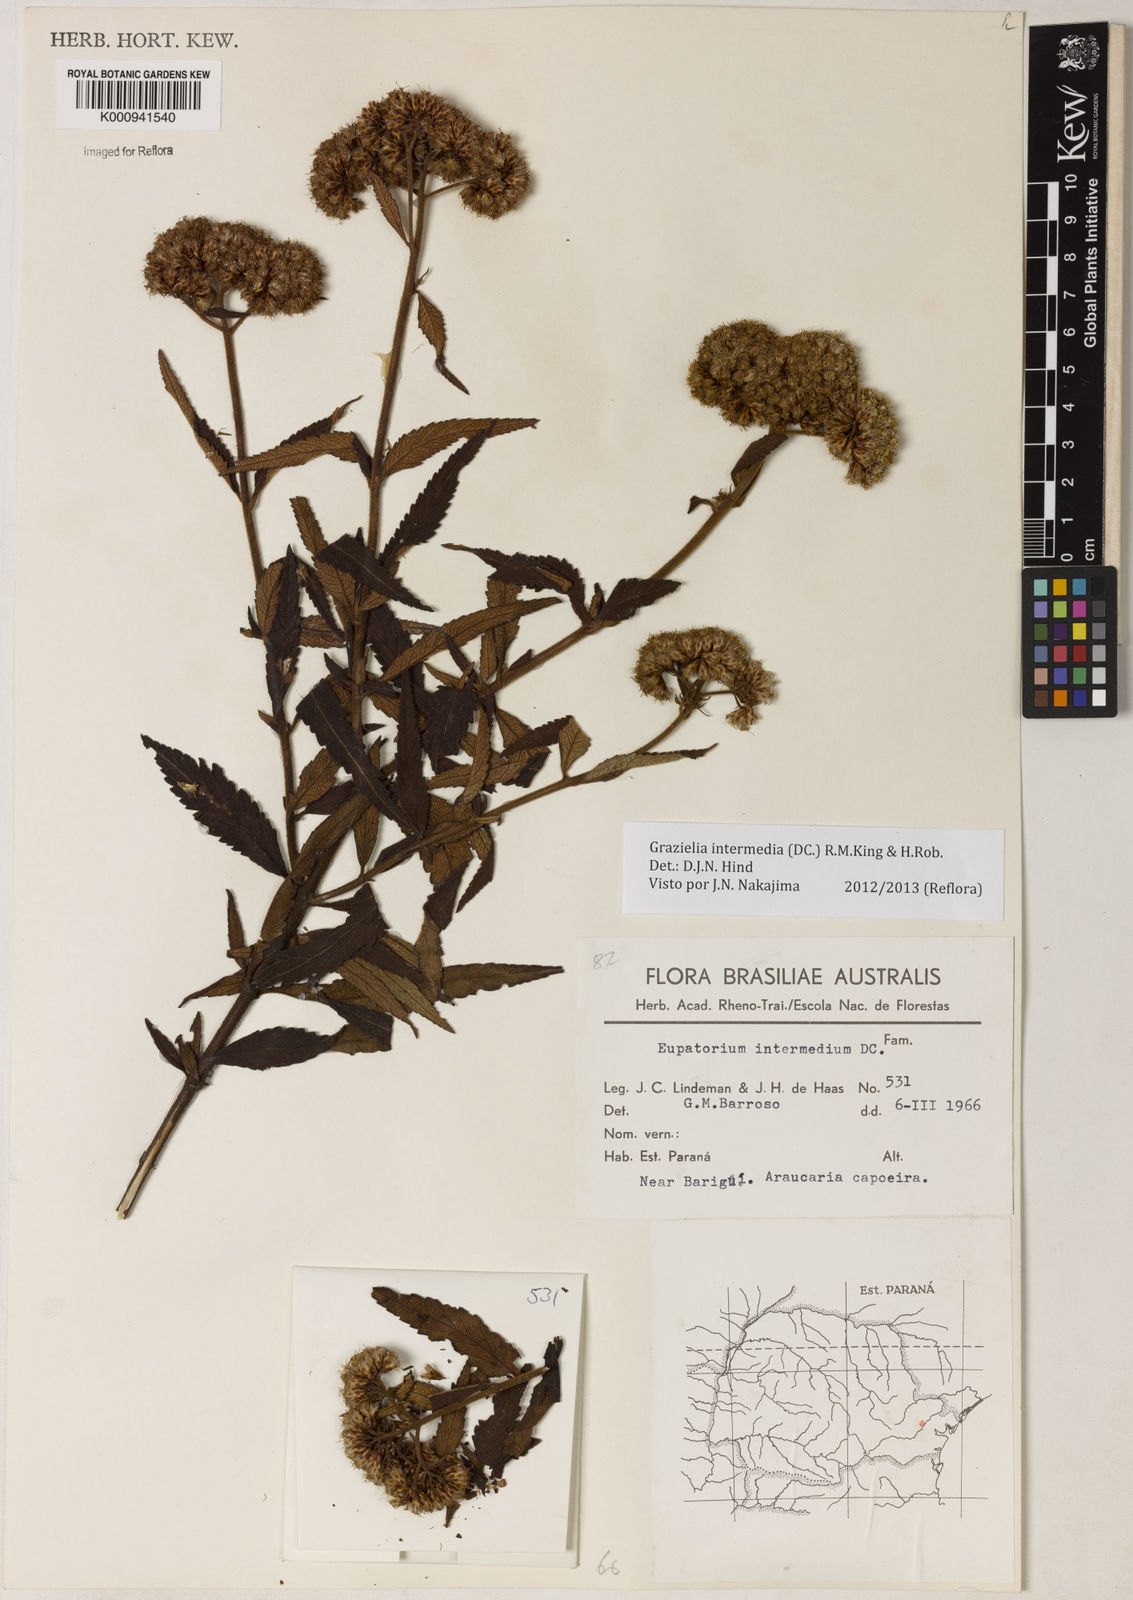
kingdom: Plantae
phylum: Tracheophyta
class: Magnoliopsida
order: Asterales
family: Asteraceae
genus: Grazielia
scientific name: Grazielia intermedia
